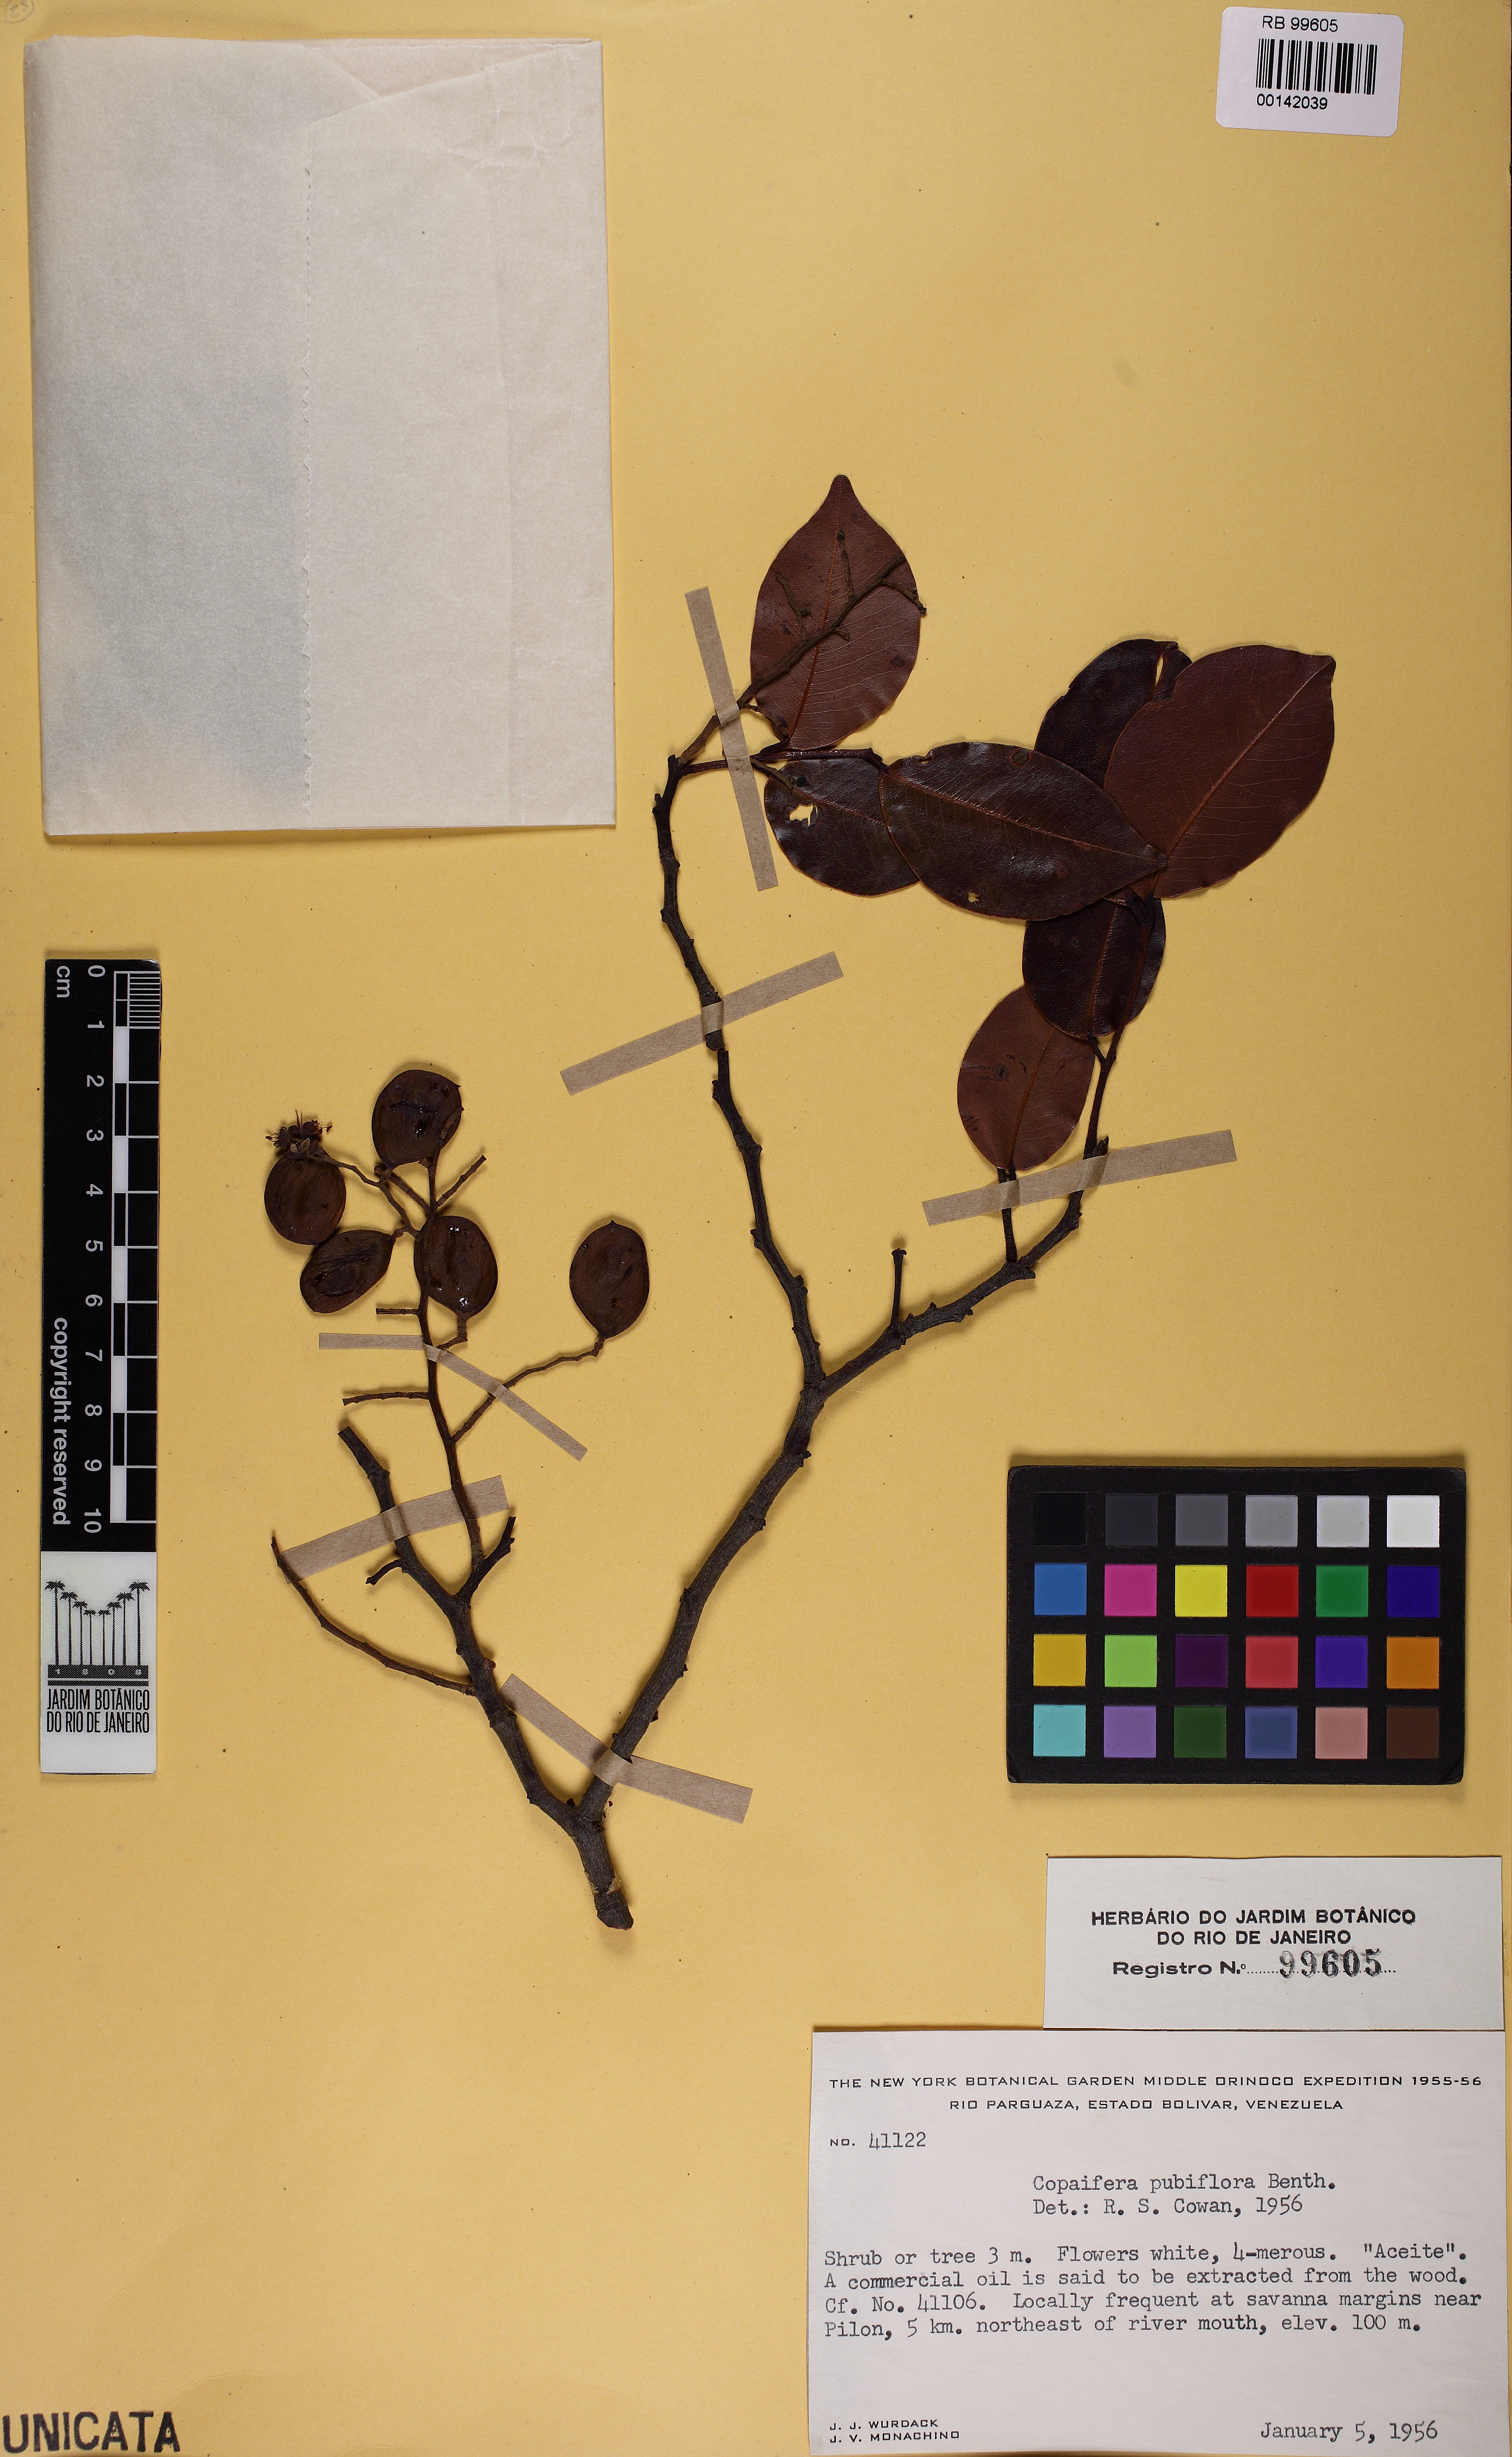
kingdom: Plantae
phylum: Tracheophyta
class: Magnoliopsida
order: Fabales
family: Fabaceae
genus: Copaifera
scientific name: Copaifera pubiflora
